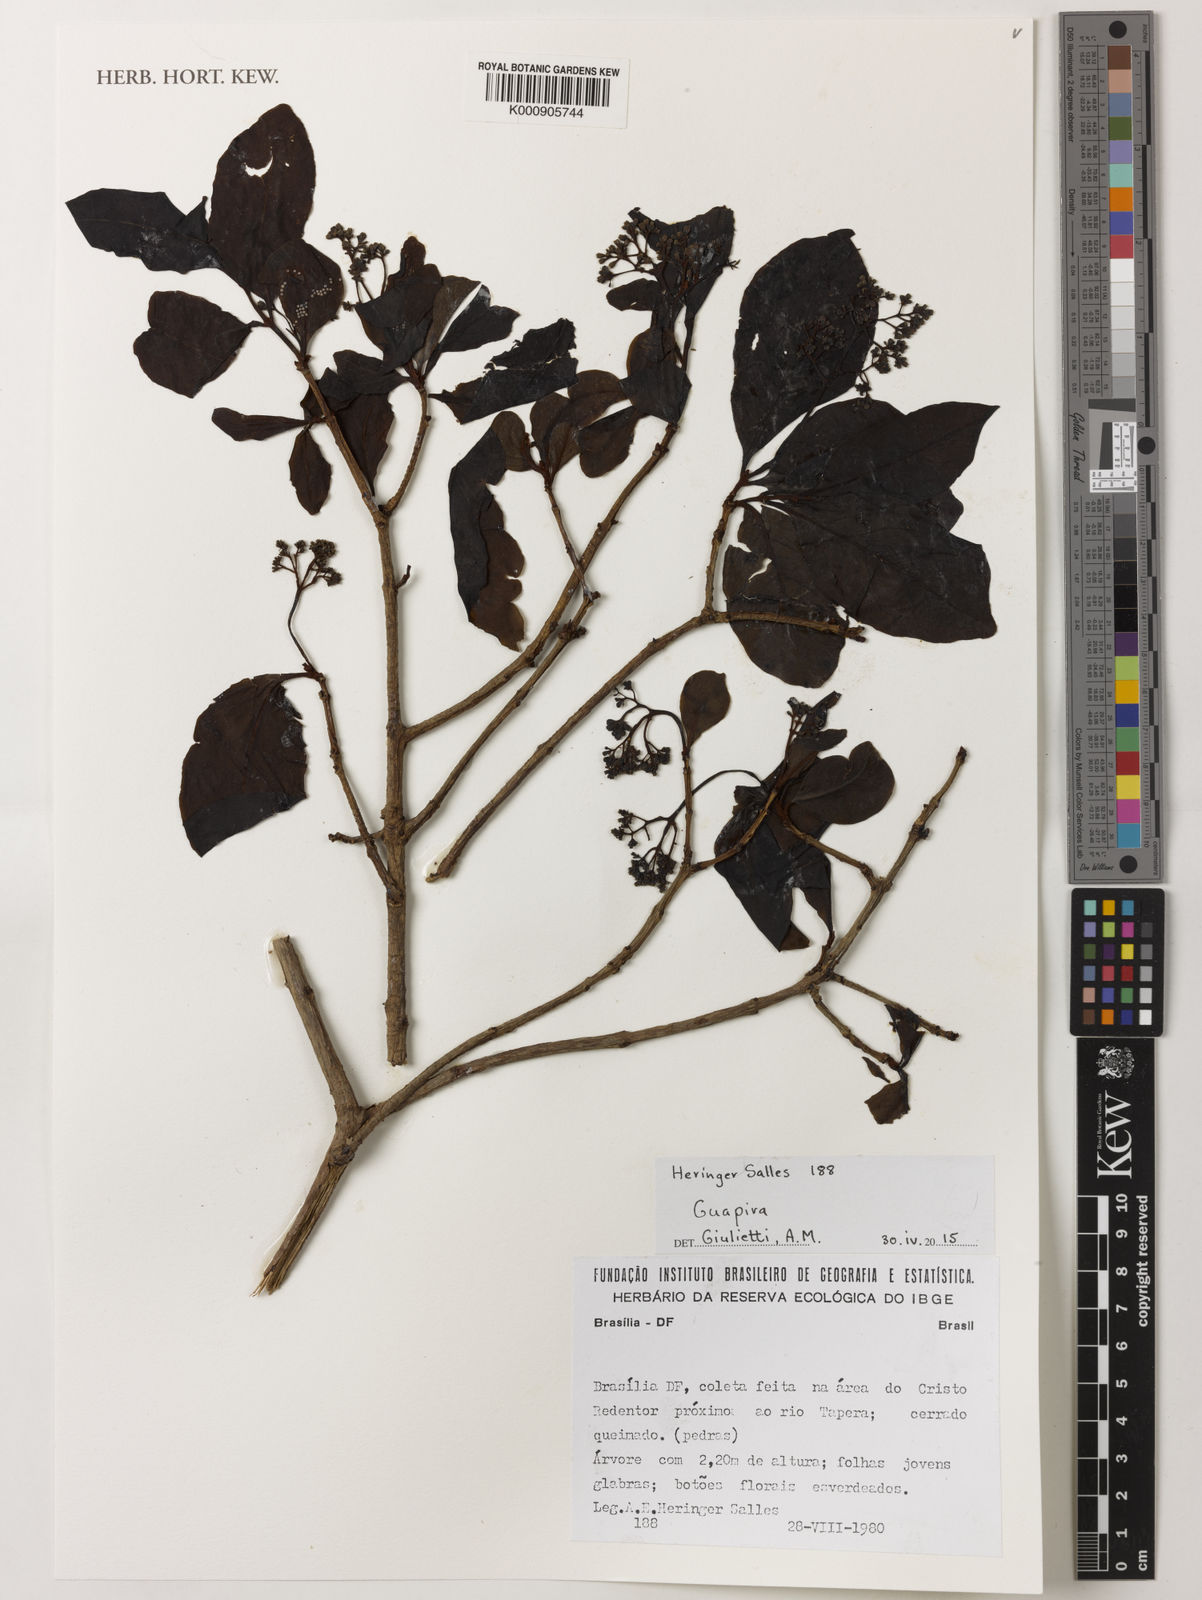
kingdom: Plantae
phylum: Tracheophyta
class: Magnoliopsida
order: Caryophyllales
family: Nyctaginaceae
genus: Guapira
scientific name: Guapira
